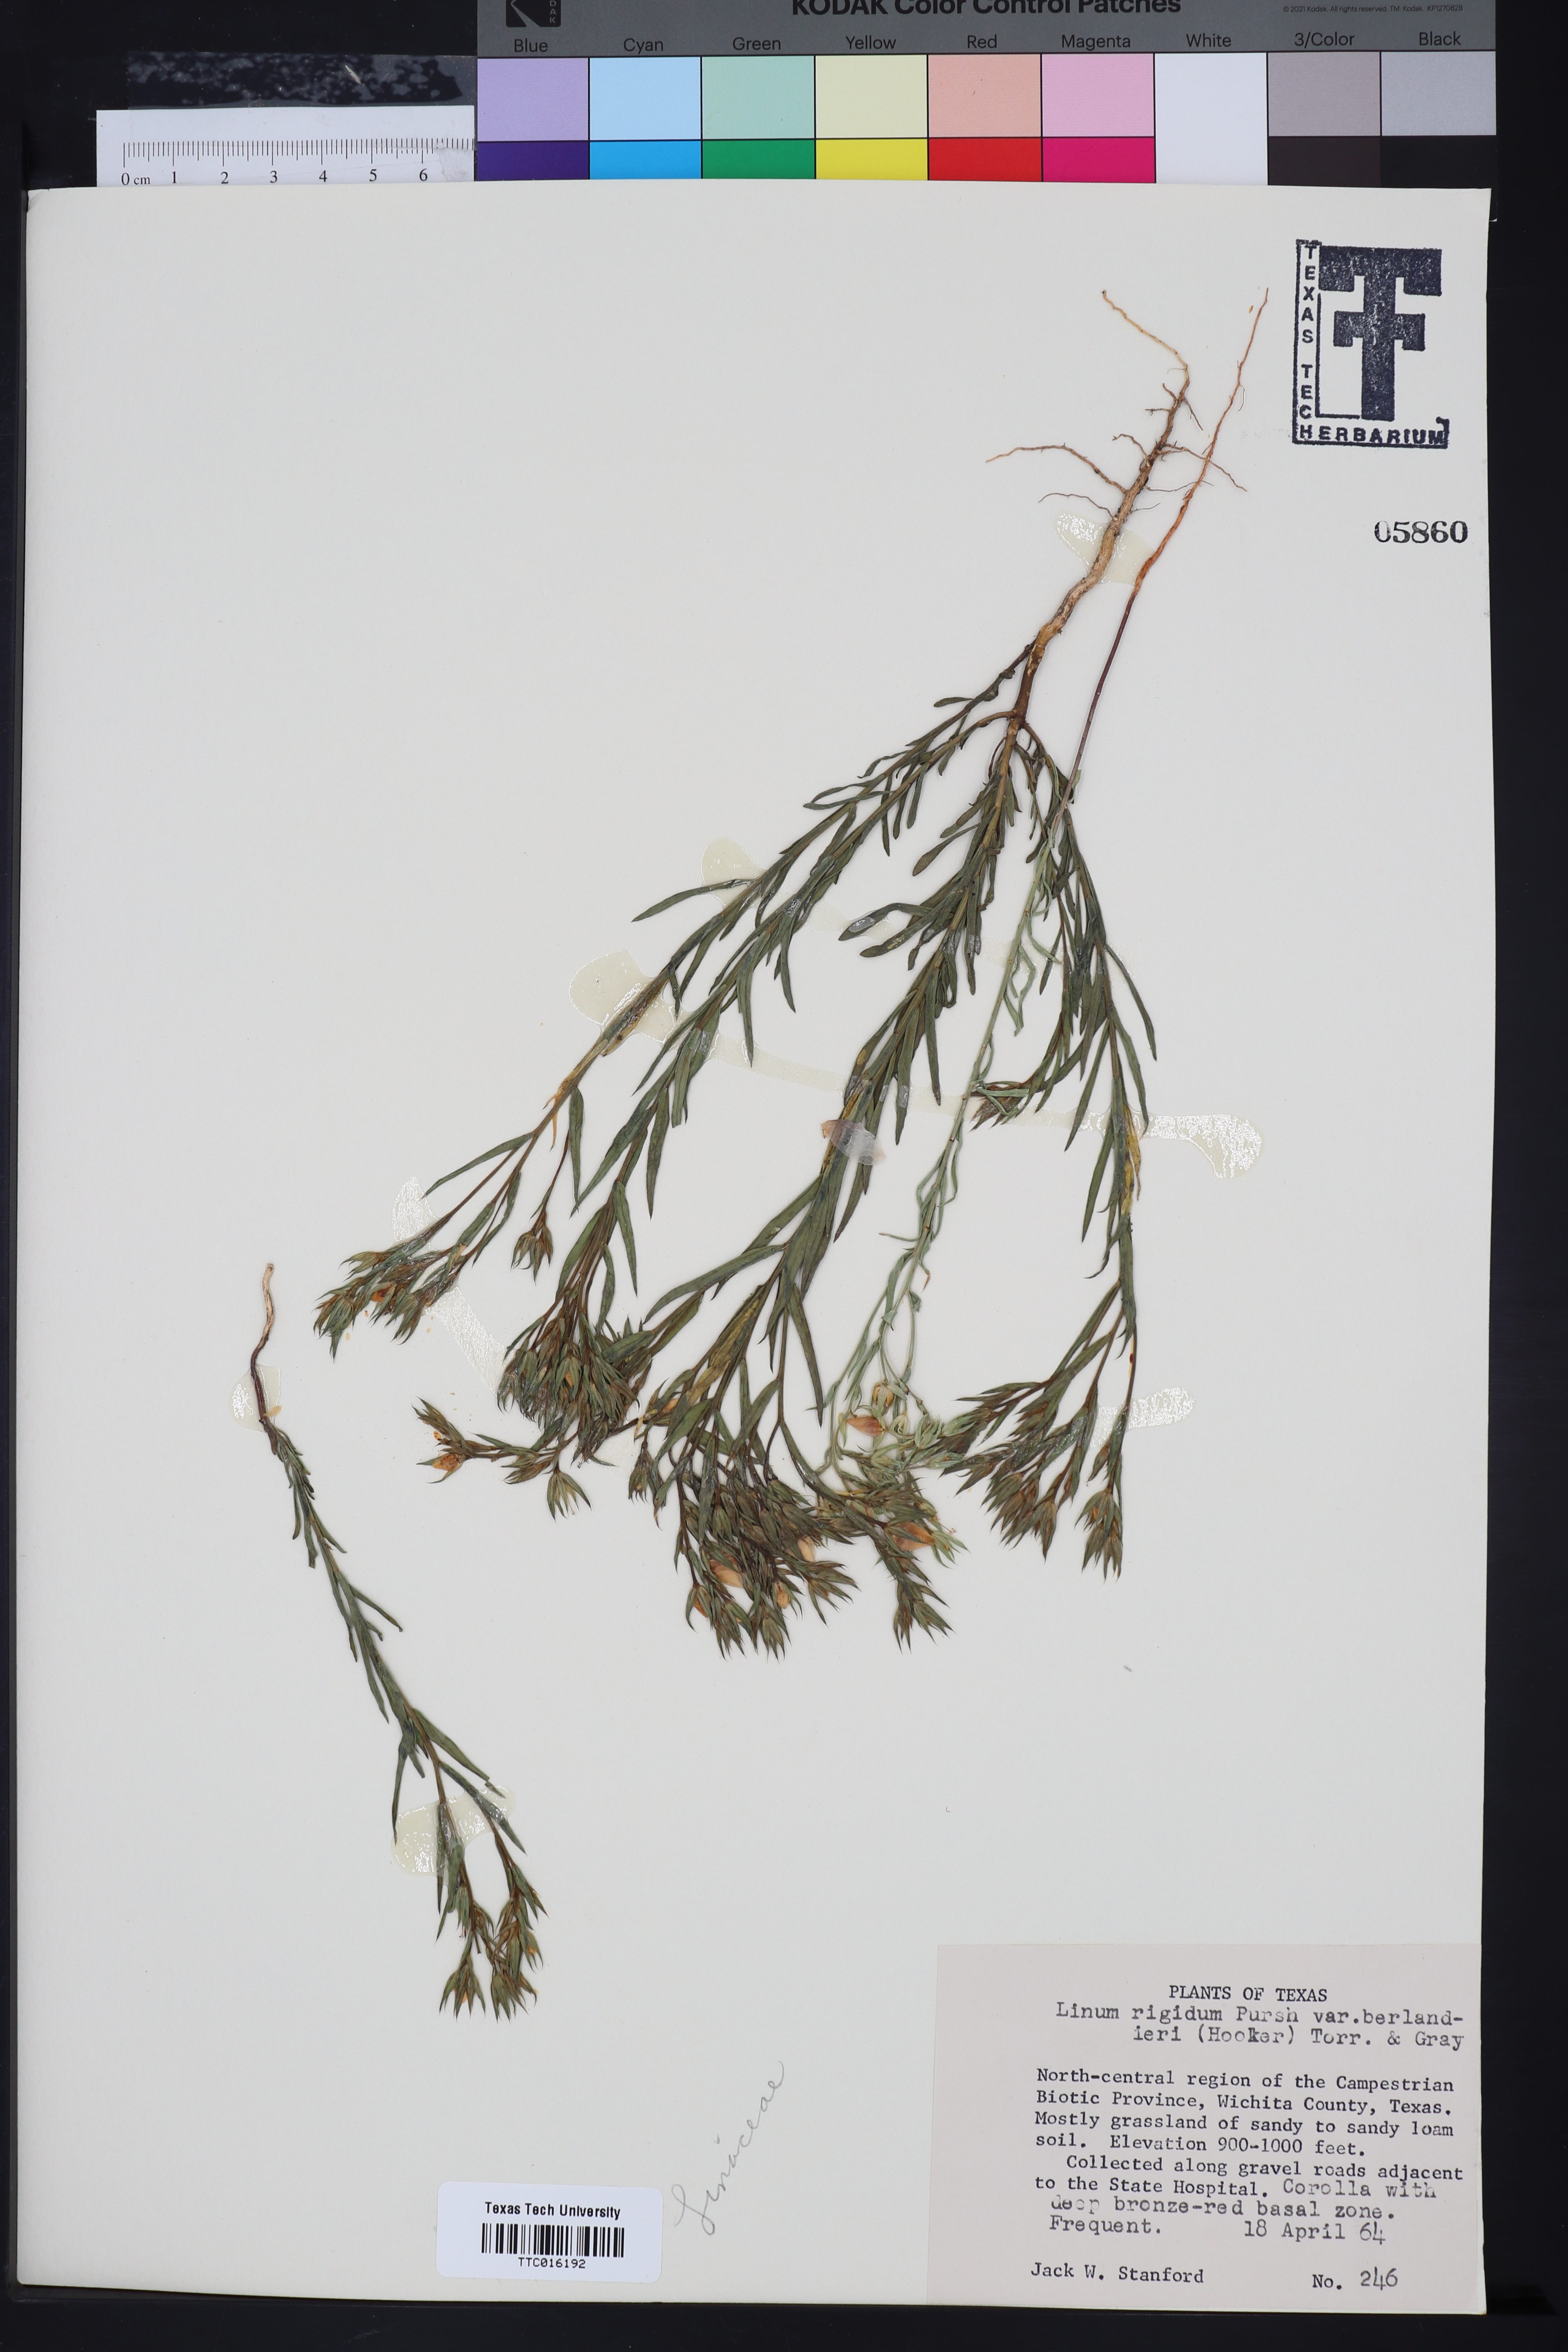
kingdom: Plantae
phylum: Tracheophyta
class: Magnoliopsida
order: Malpighiales
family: Linaceae
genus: Linum
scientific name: Linum berlandieri
